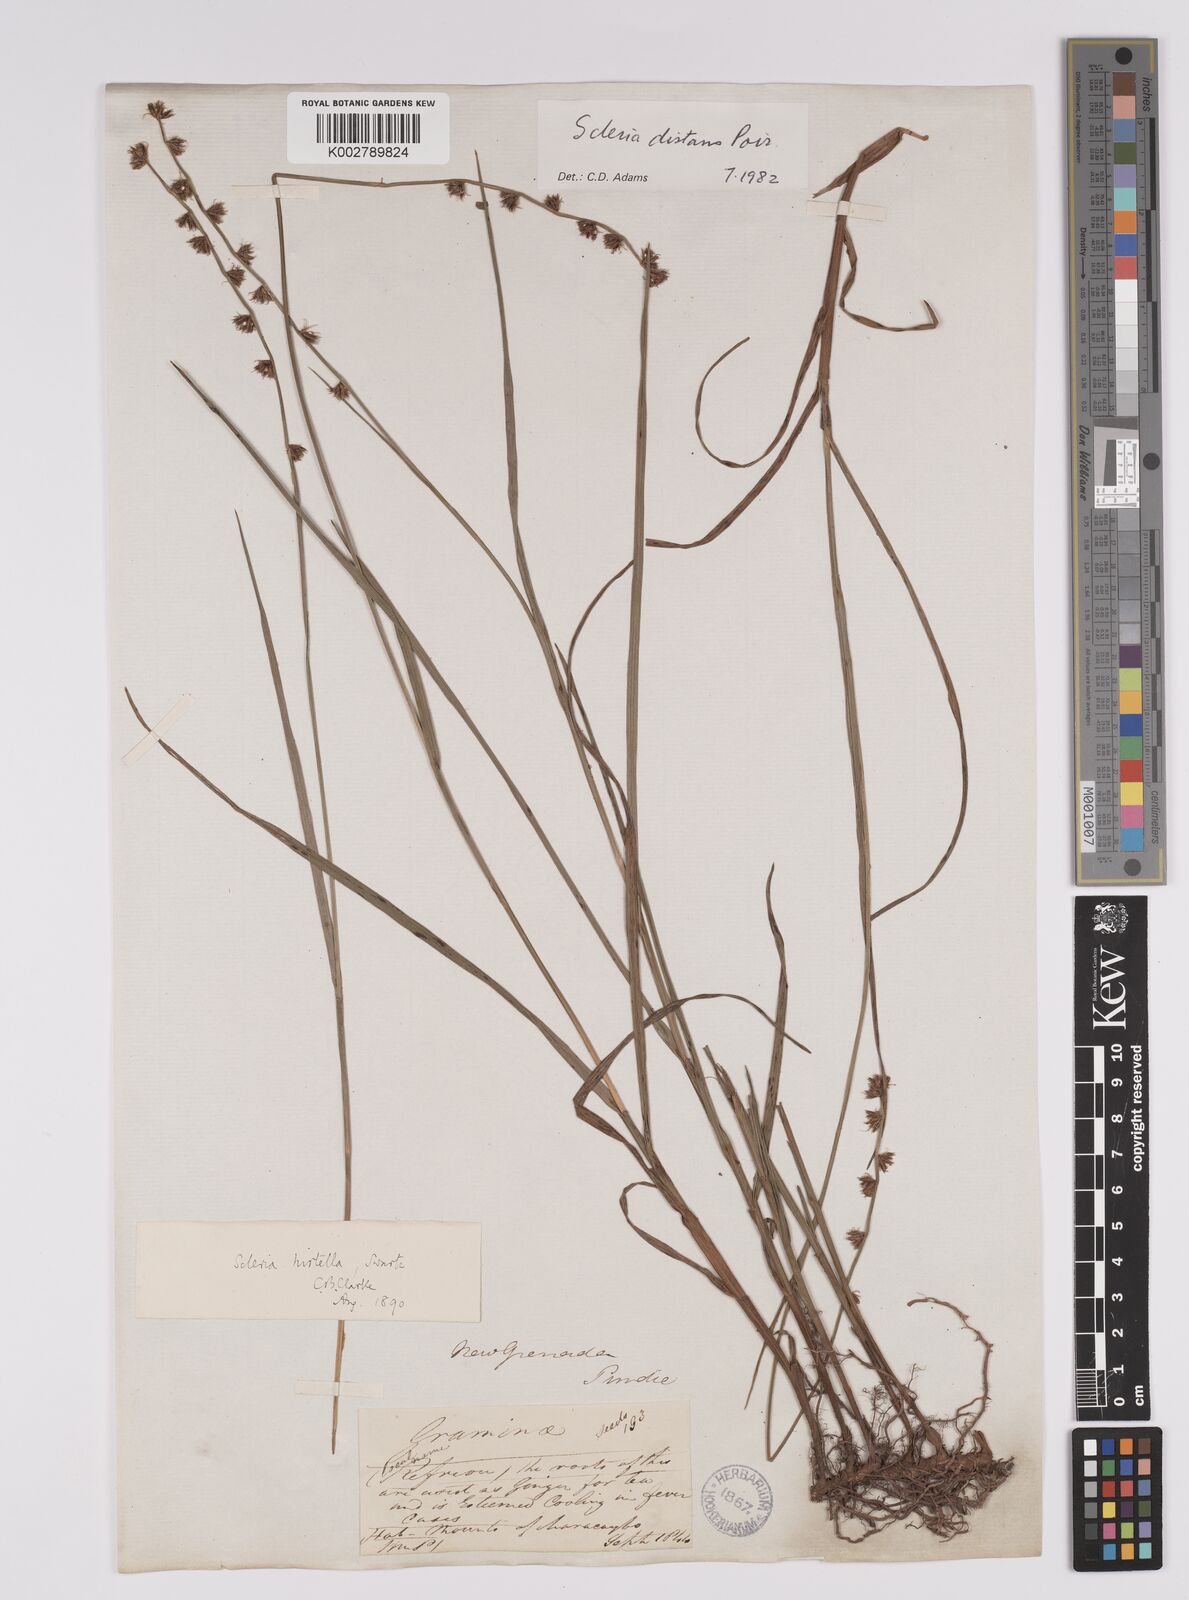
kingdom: Plantae
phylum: Tracheophyta
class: Liliopsida
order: Poales
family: Cyperaceae
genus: Scleria
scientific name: Scleria distans
